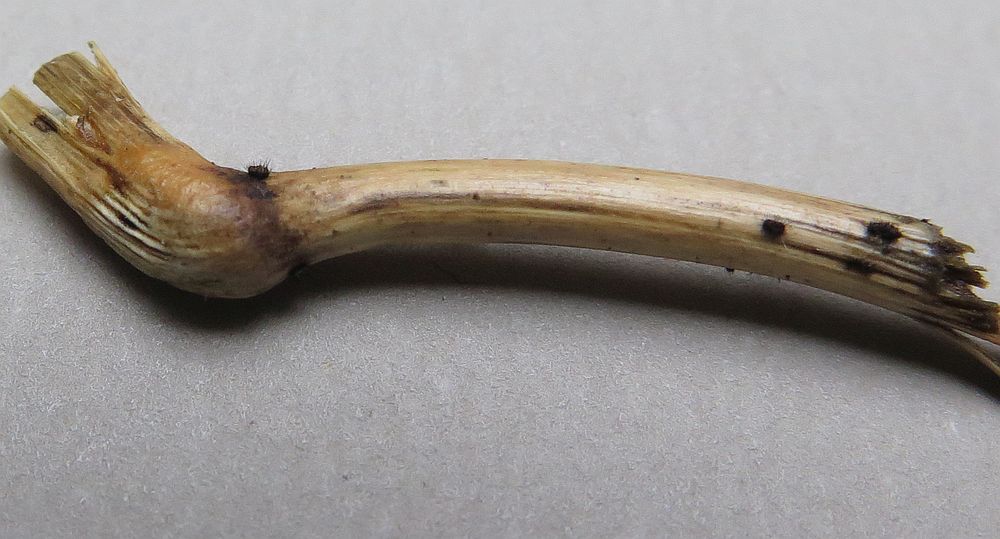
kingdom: Fungi
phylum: Ascomycota
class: Sordariomycetes
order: Chaetosphaeriales
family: Chaetosphaeriaceae
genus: Pseudolachnea
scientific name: Pseudolachnea hispidula
